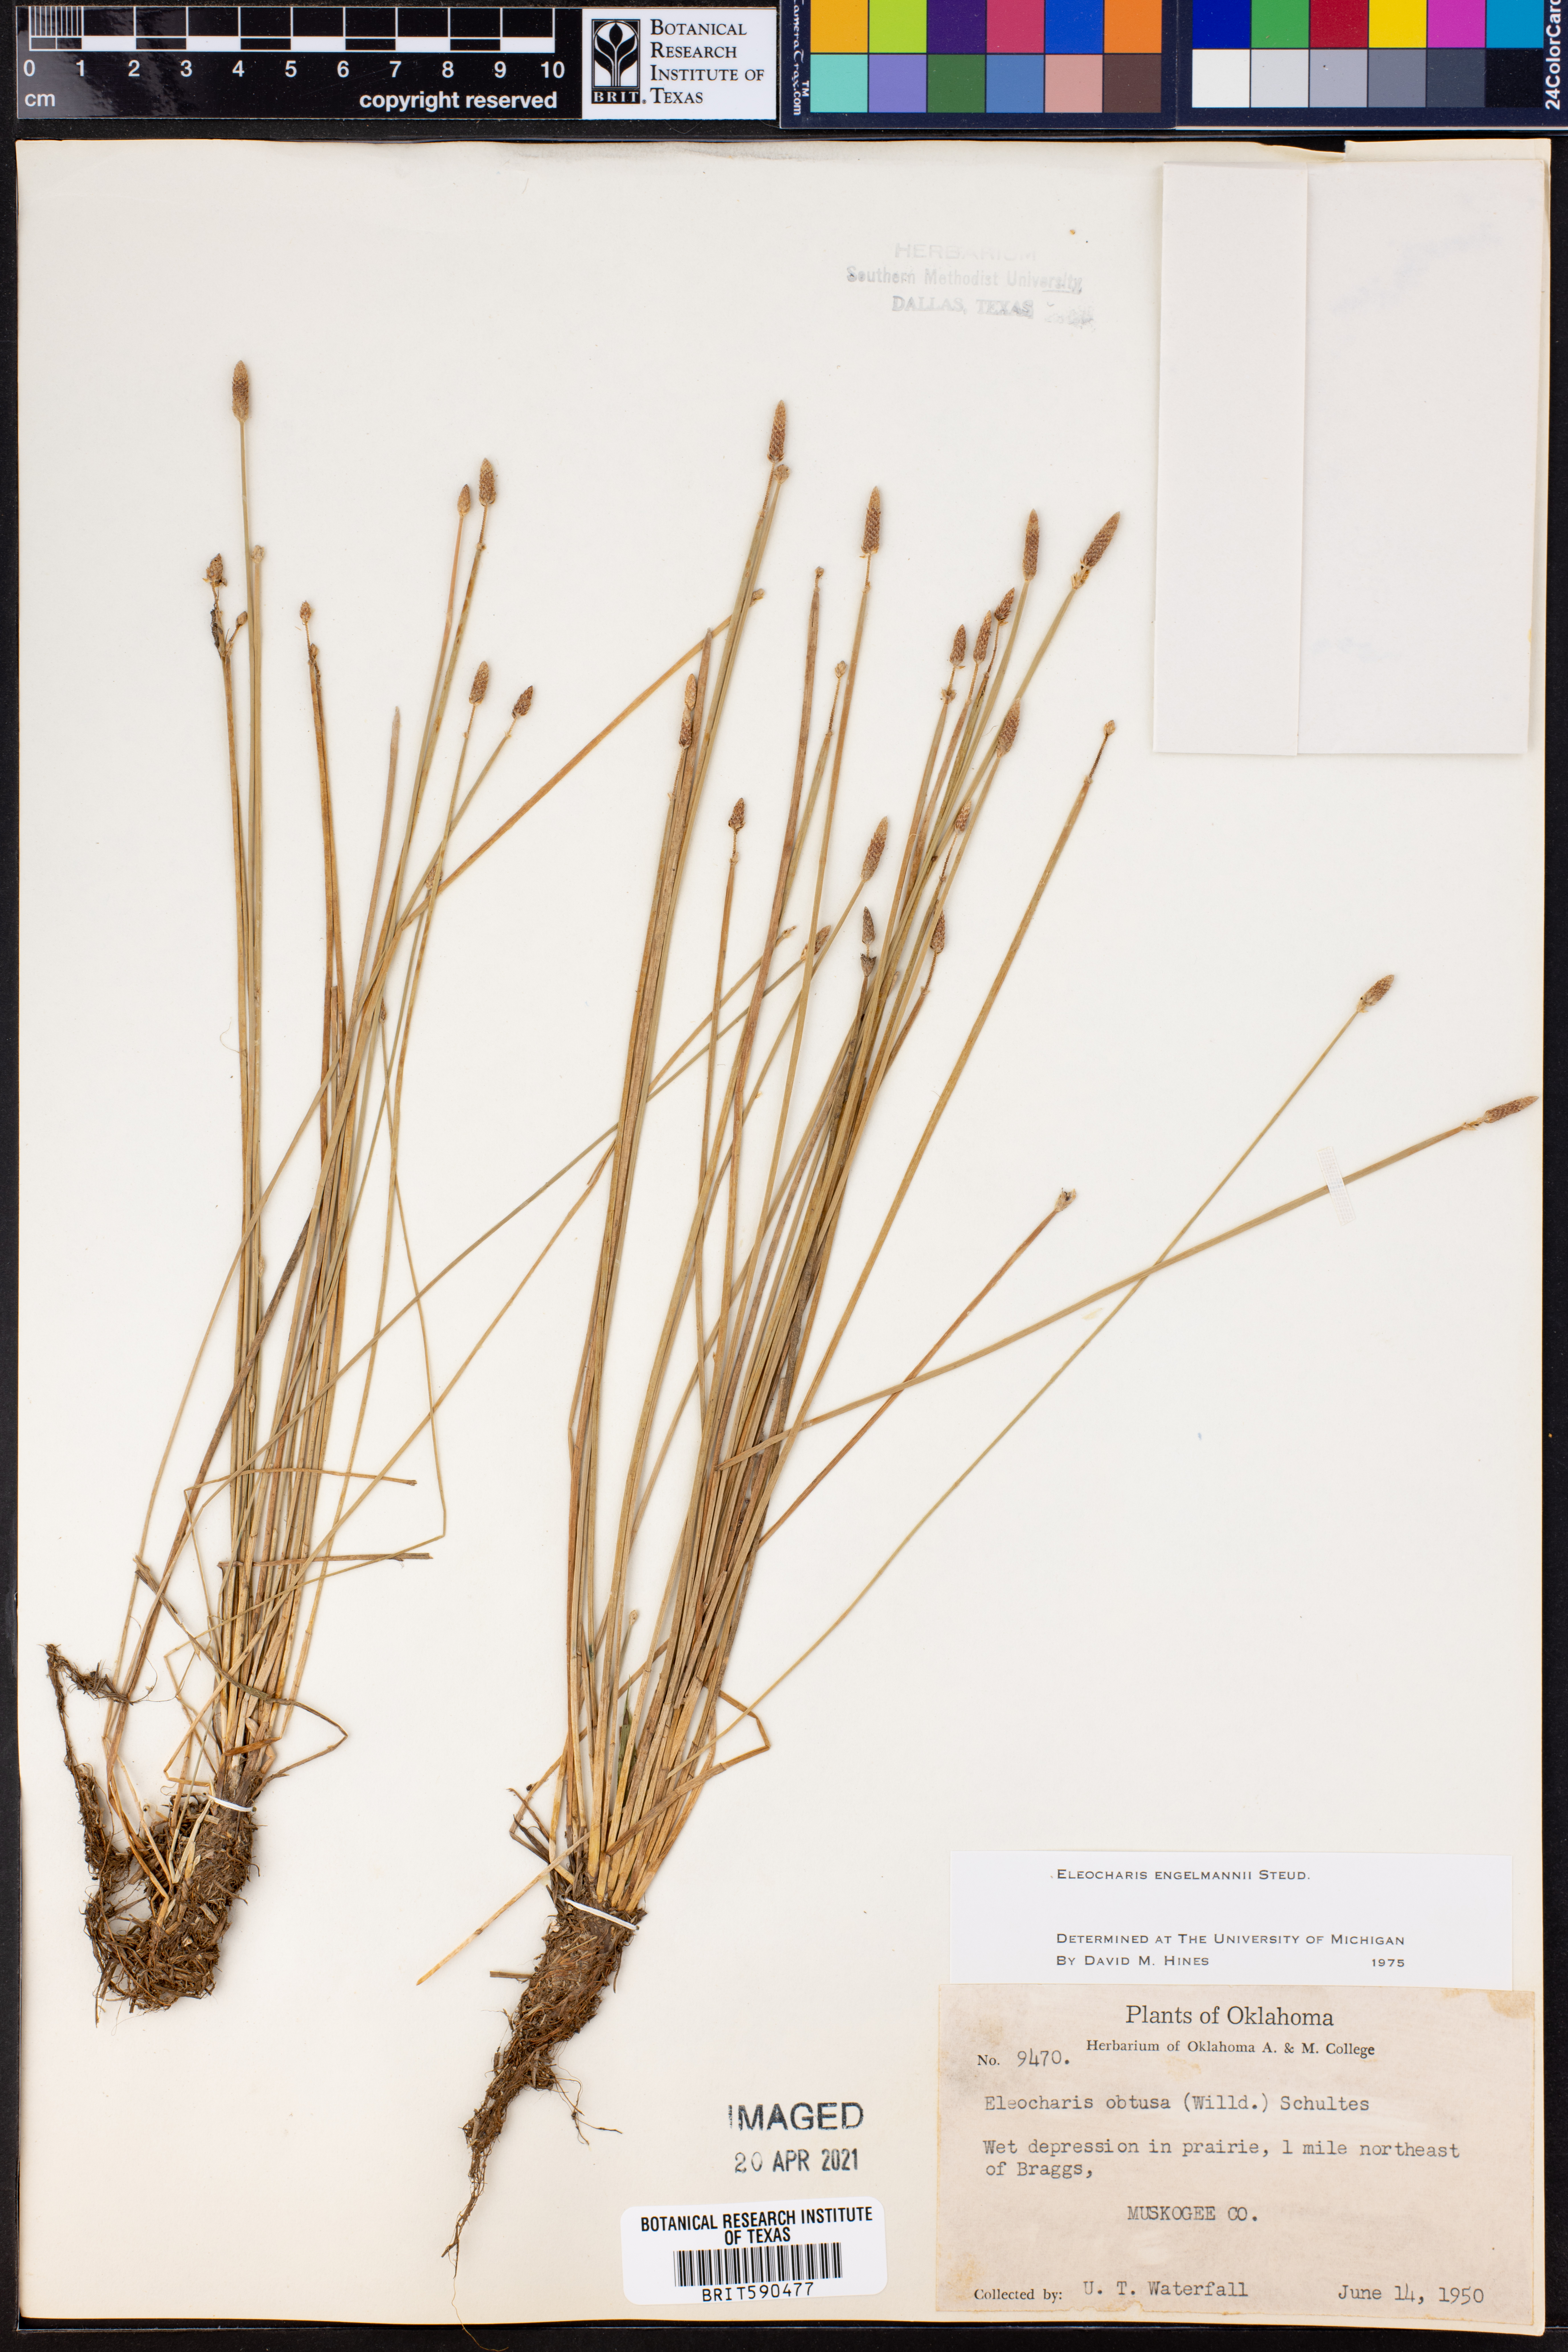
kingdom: Plantae
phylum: Tracheophyta
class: Liliopsida
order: Poales
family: Cyperaceae
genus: Eleocharis
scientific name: Eleocharis engelmannii
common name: Engelmann's spikerush
